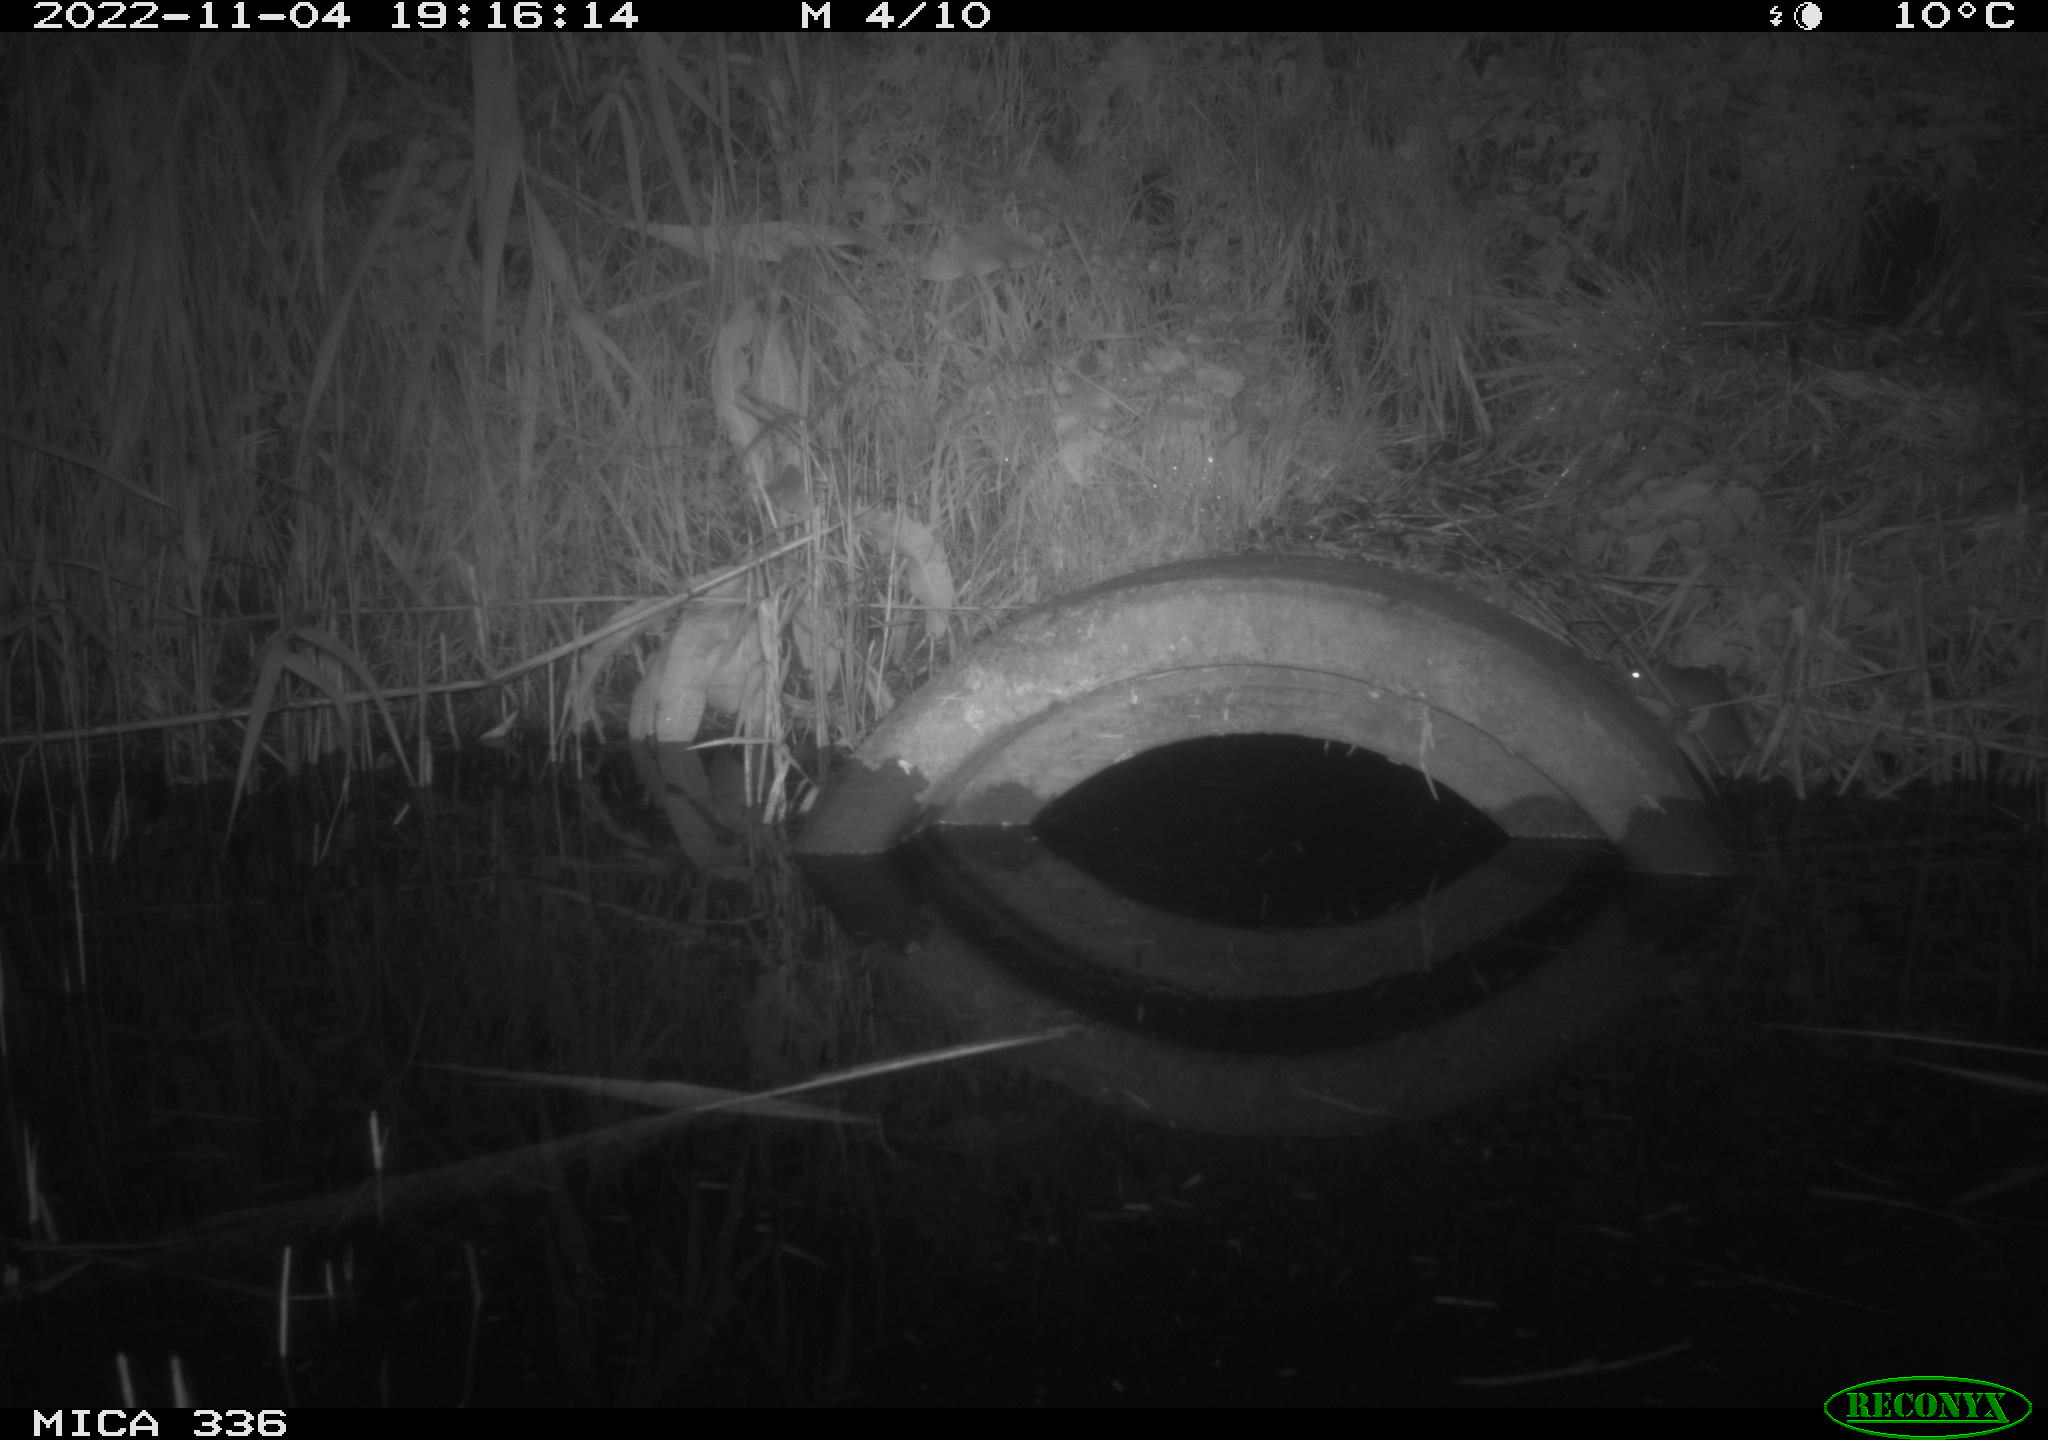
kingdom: Animalia
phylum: Chordata
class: Mammalia
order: Rodentia
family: Muridae
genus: Rattus
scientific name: Rattus norvegicus
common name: Brown rat
